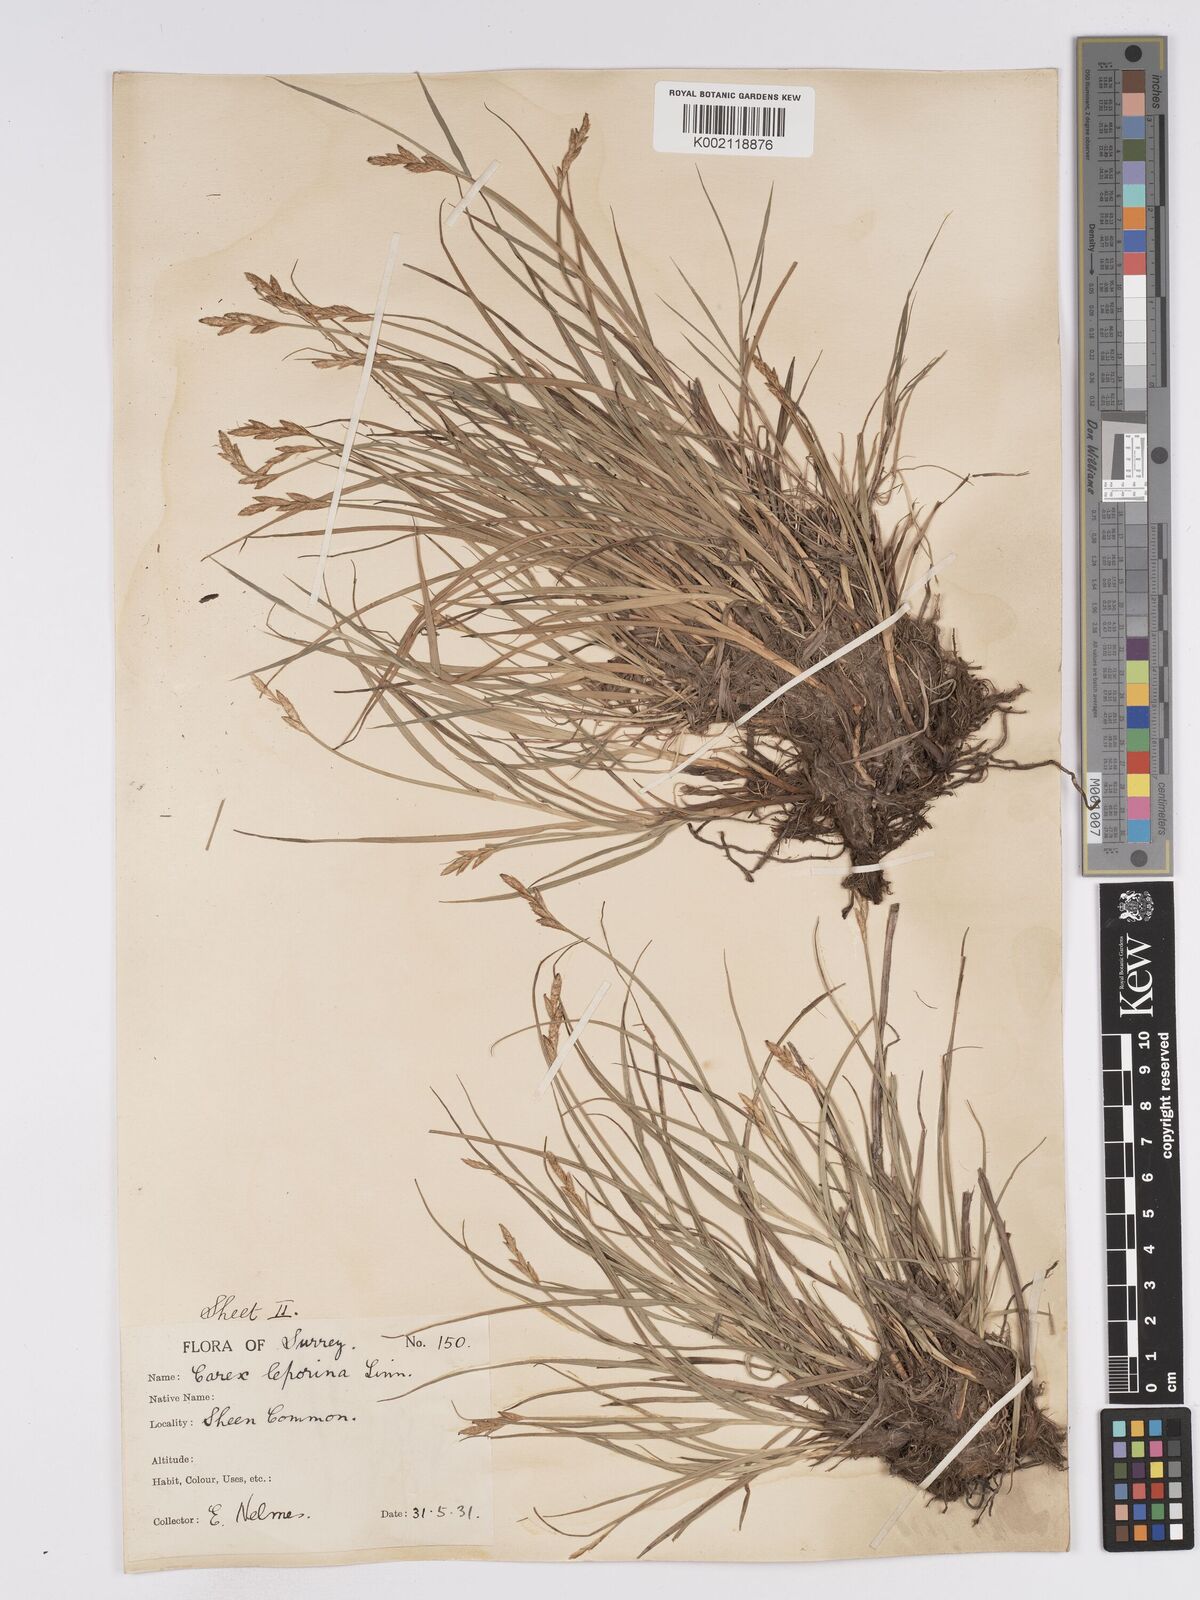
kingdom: Plantae
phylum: Tracheophyta
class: Liliopsida
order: Poales
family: Cyperaceae
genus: Carex
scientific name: Carex leporina
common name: Oval sedge
